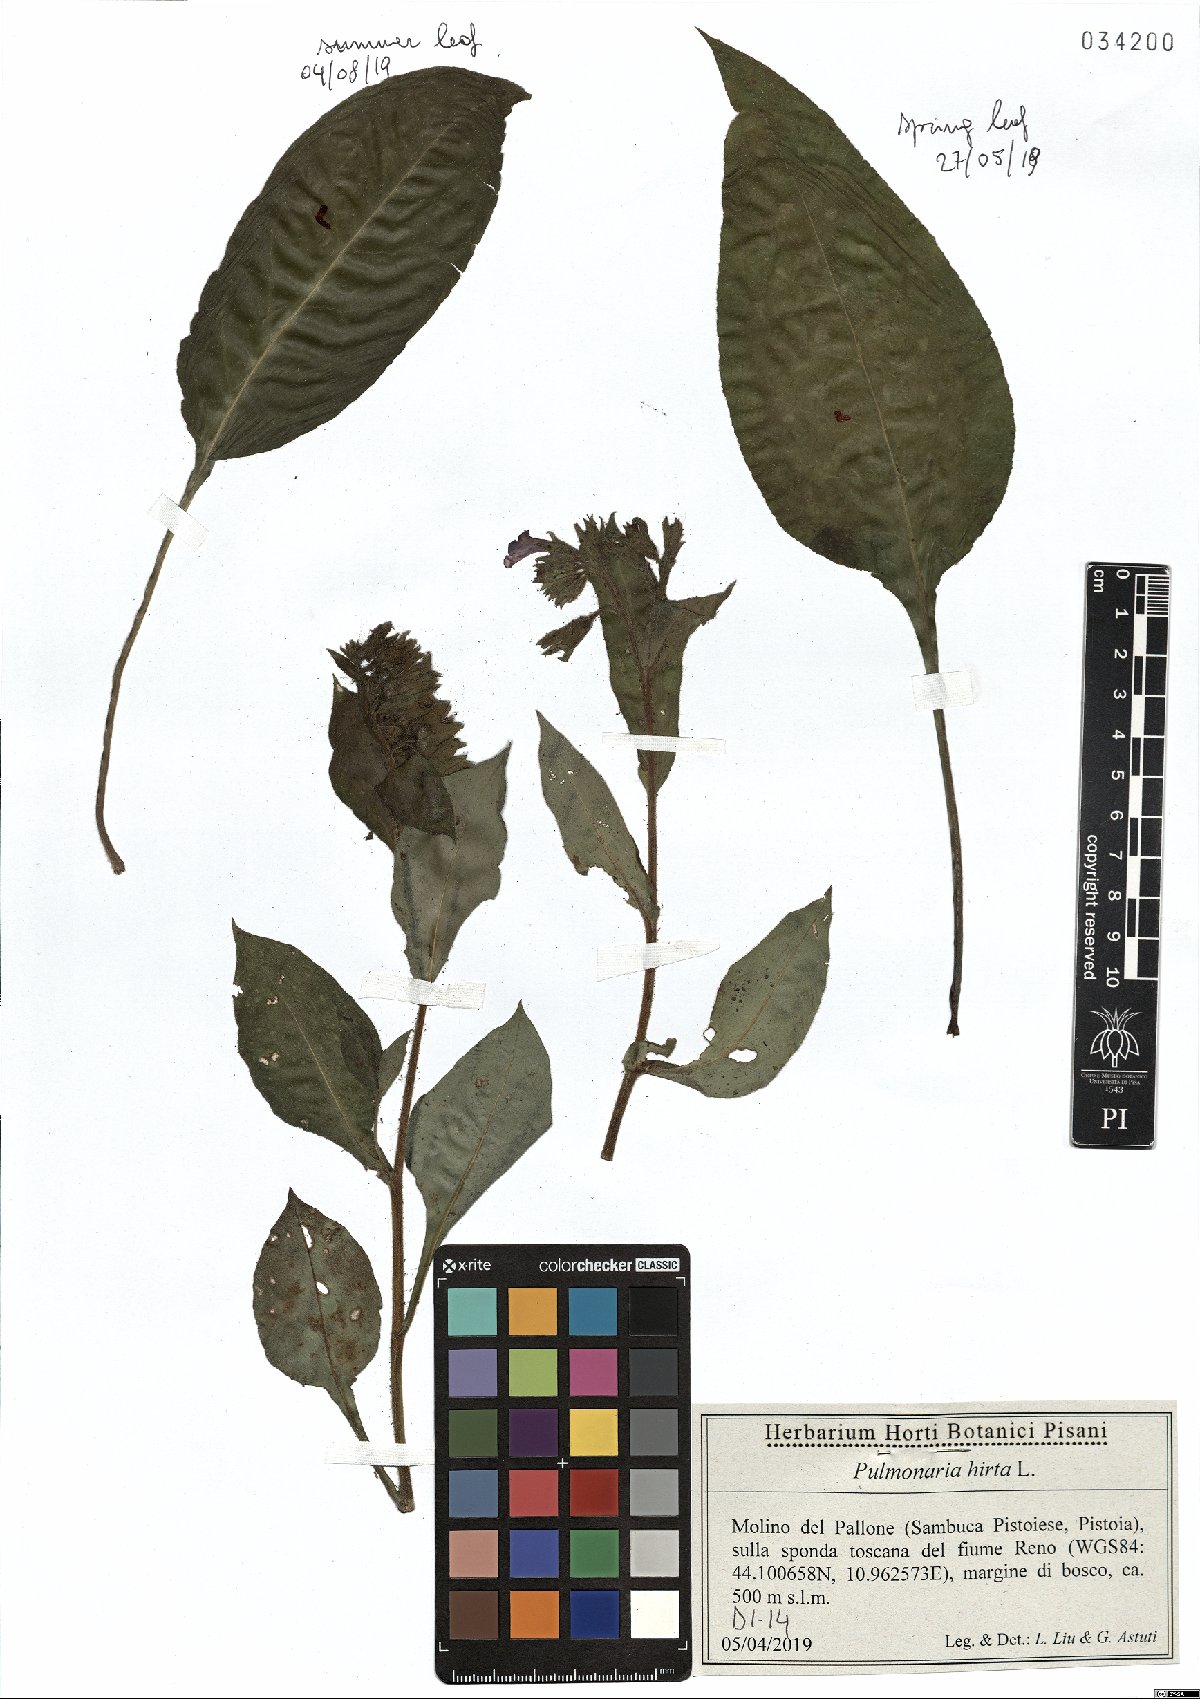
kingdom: Plantae
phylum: Tracheophyta
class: Magnoliopsida
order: Boraginales
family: Boraginaceae
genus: Pulmonaria
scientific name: Pulmonaria hirta
